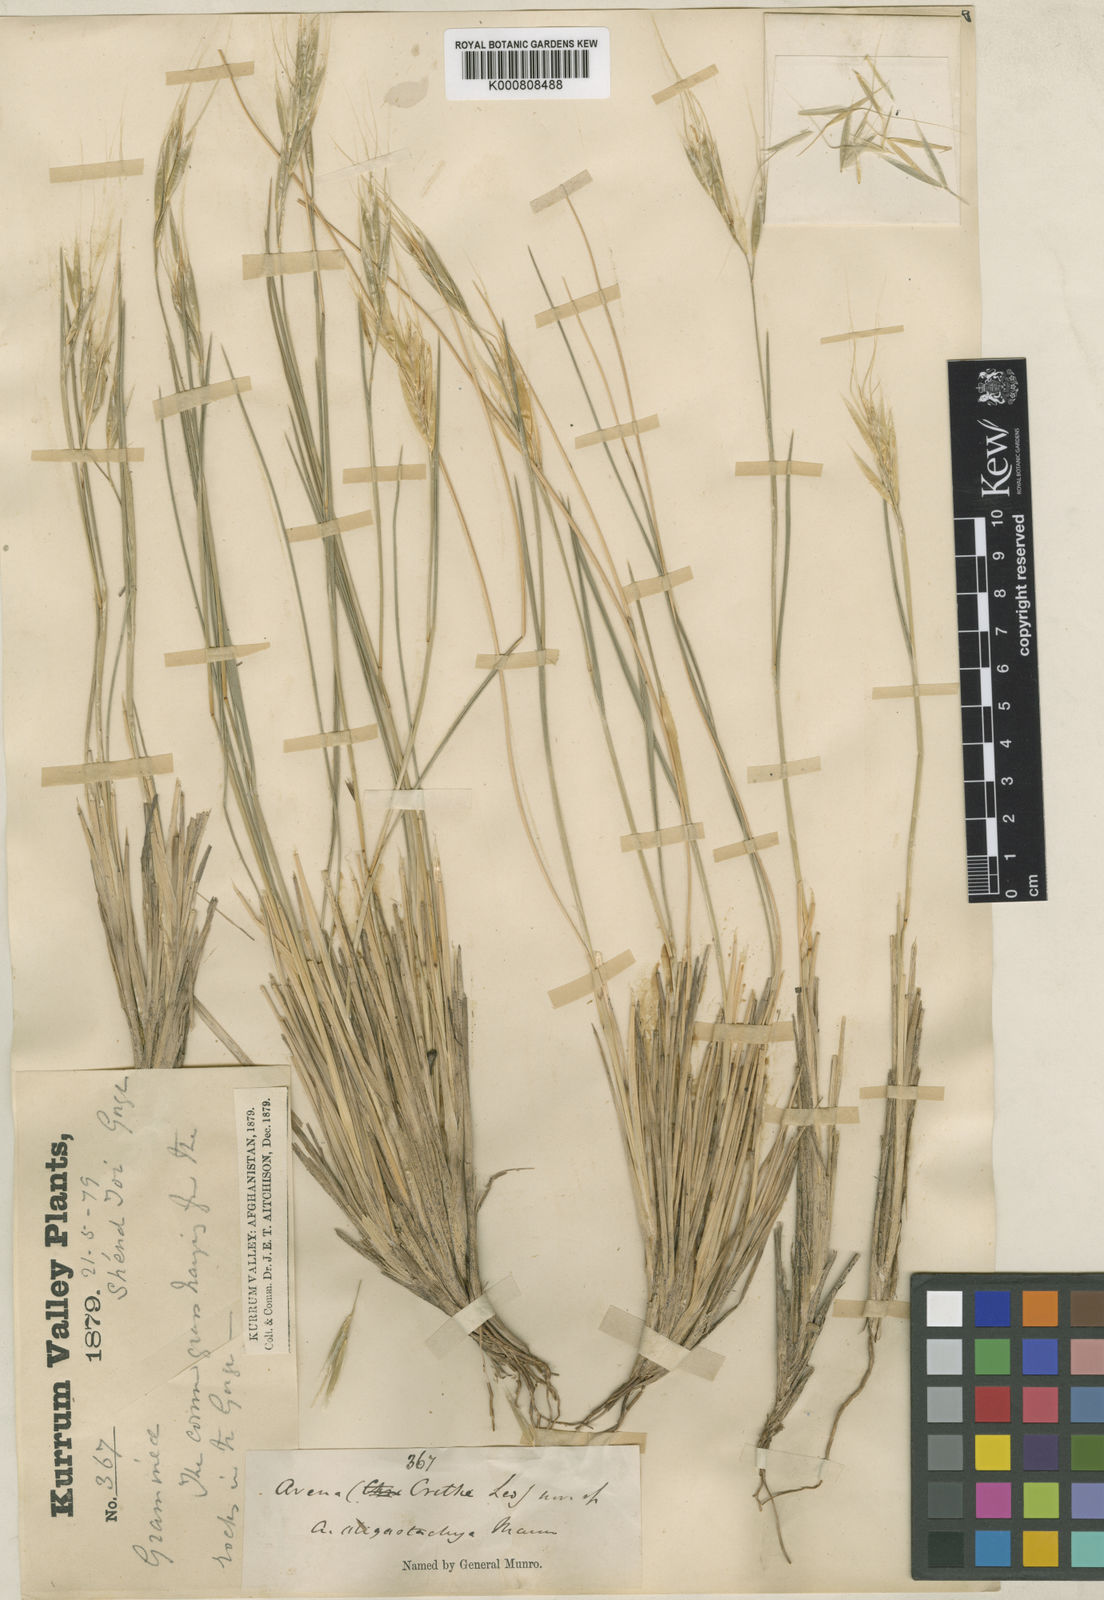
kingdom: Plantae
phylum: Tracheophyta
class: Liliopsida
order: Poales
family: Poaceae
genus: Duthiea
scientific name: Duthiea oligostachya
